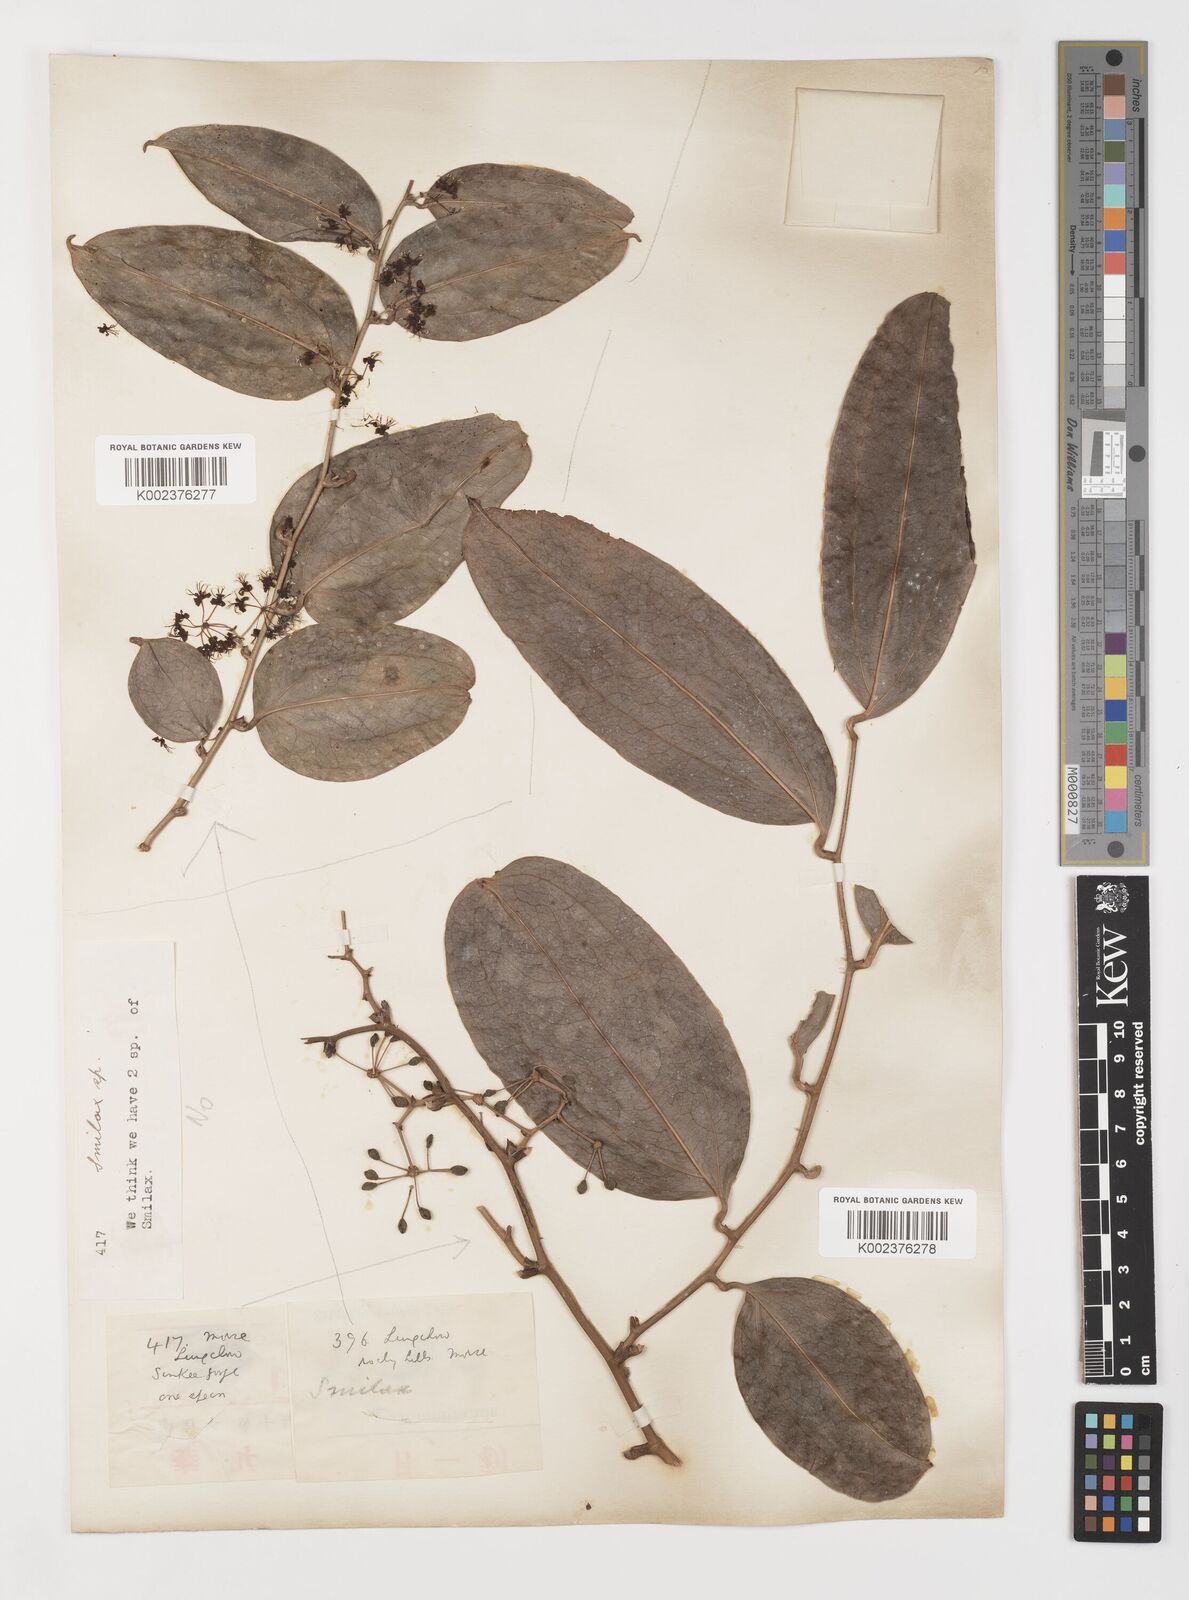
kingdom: Plantae
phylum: Tracheophyta
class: Liliopsida
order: Liliales
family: Smilacaceae
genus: Smilax
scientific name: Smilax megacarpa
